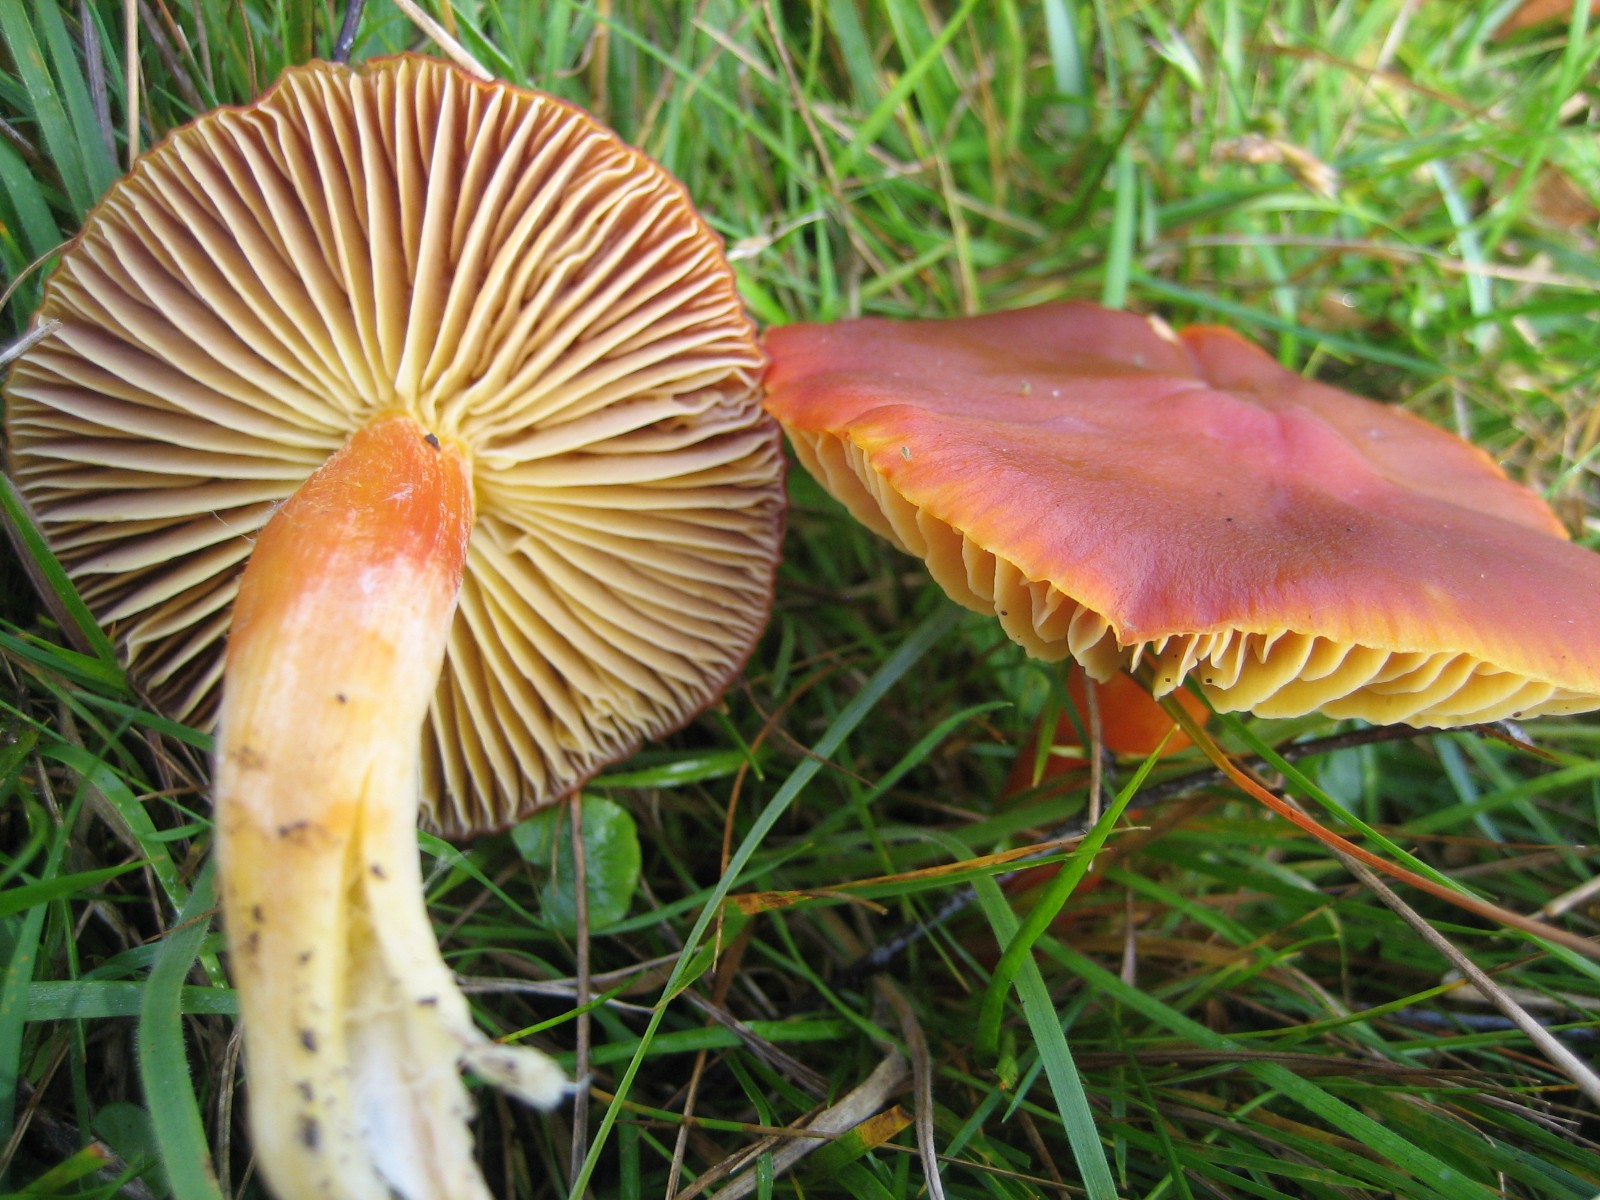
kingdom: Fungi
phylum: Basidiomycota
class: Agaricomycetes
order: Agaricales
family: Hygrophoraceae
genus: Hygrocybe
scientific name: Hygrocybe punicea
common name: skarlagen-vokshat
